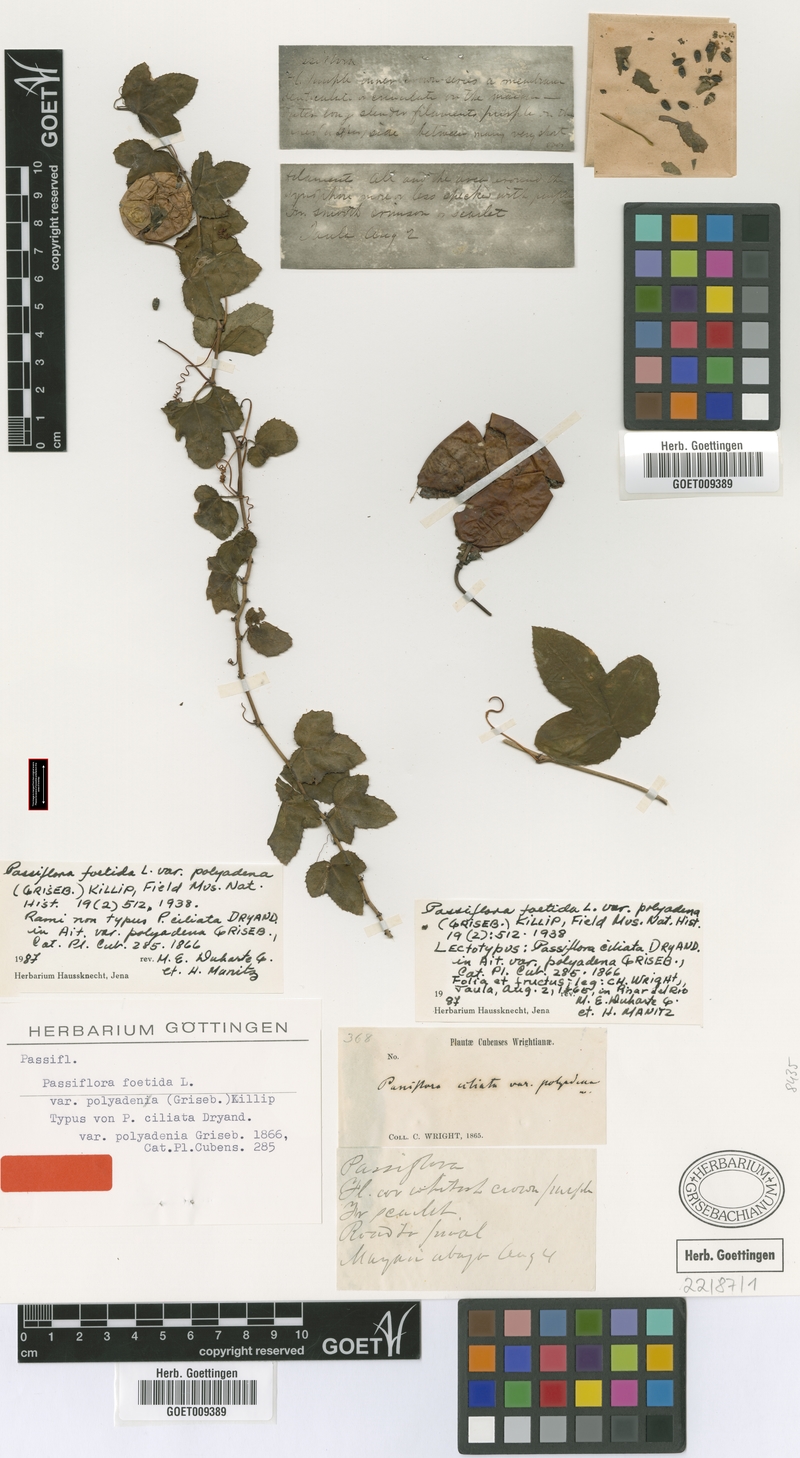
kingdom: Plantae
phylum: Tracheophyta
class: Magnoliopsida
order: Malpighiales
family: Passifloraceae
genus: Passiflora
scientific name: Passiflora foetida
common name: Fetid passionflower
